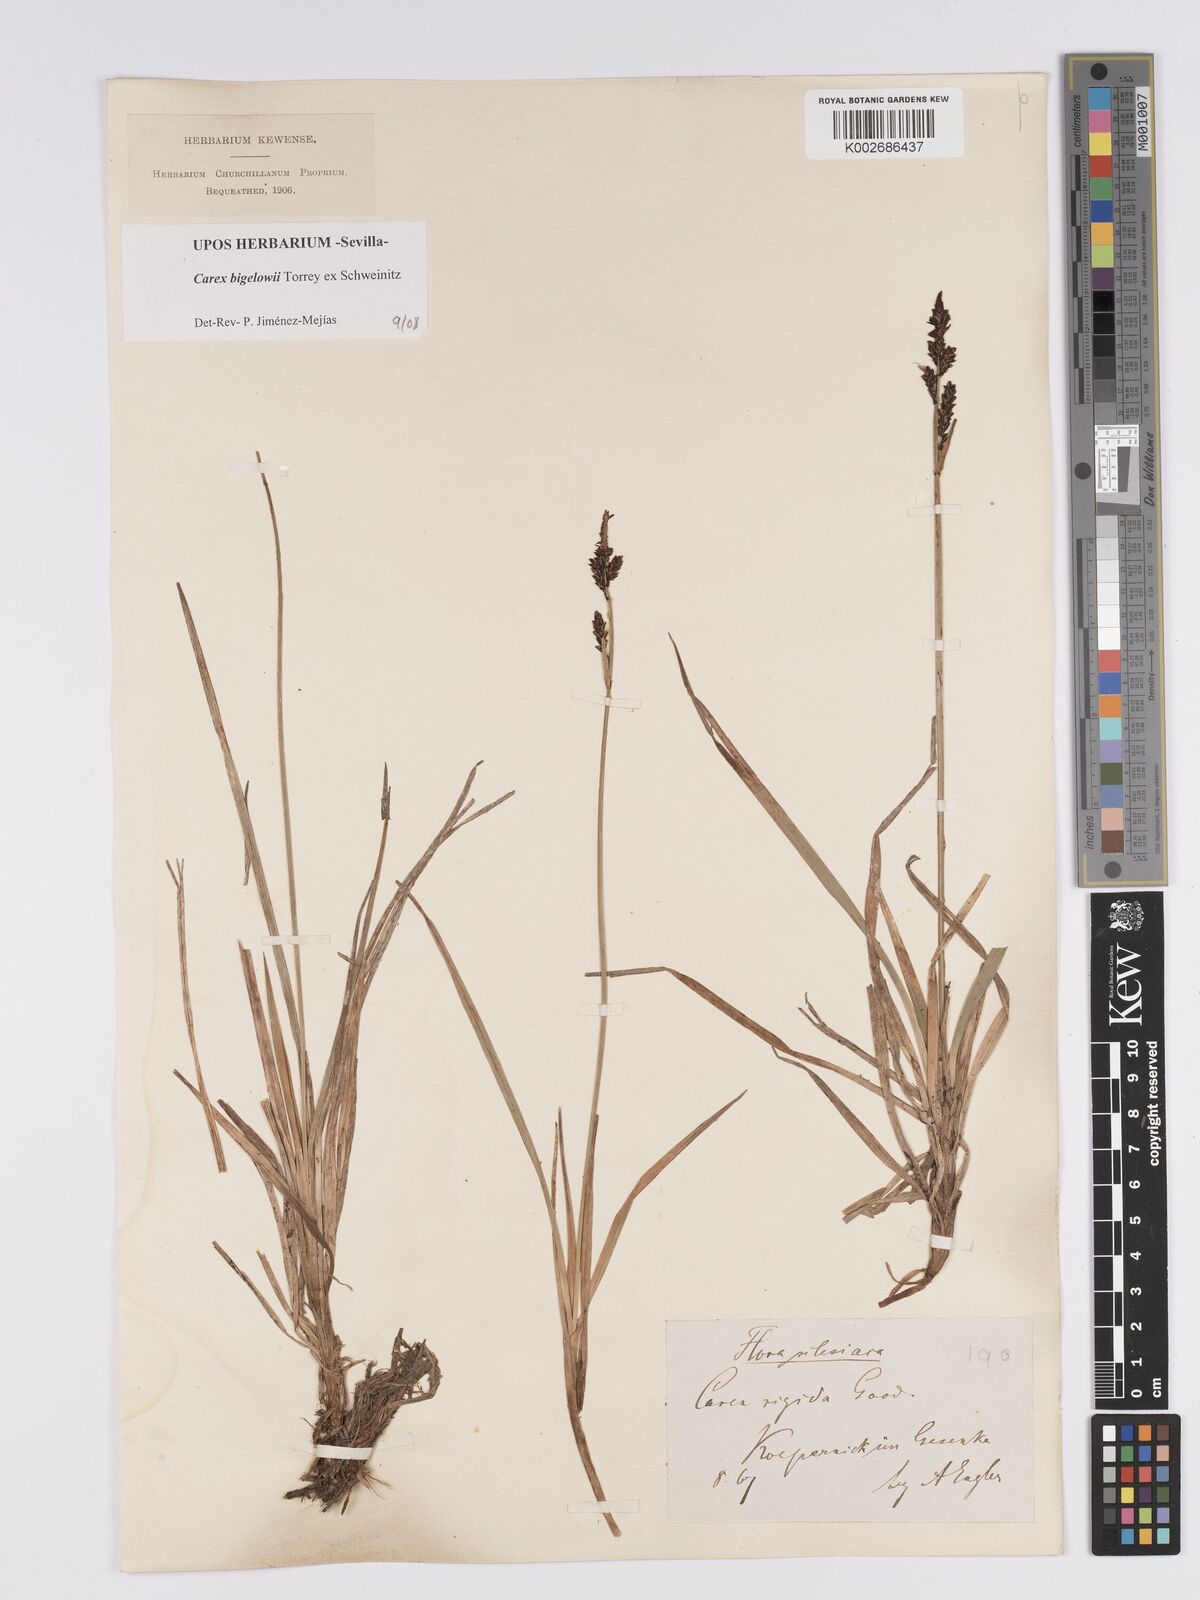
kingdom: Plantae
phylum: Tracheophyta
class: Liliopsida
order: Poales
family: Cyperaceae
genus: Carex
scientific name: Carex bigelowii
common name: Stiff sedge
